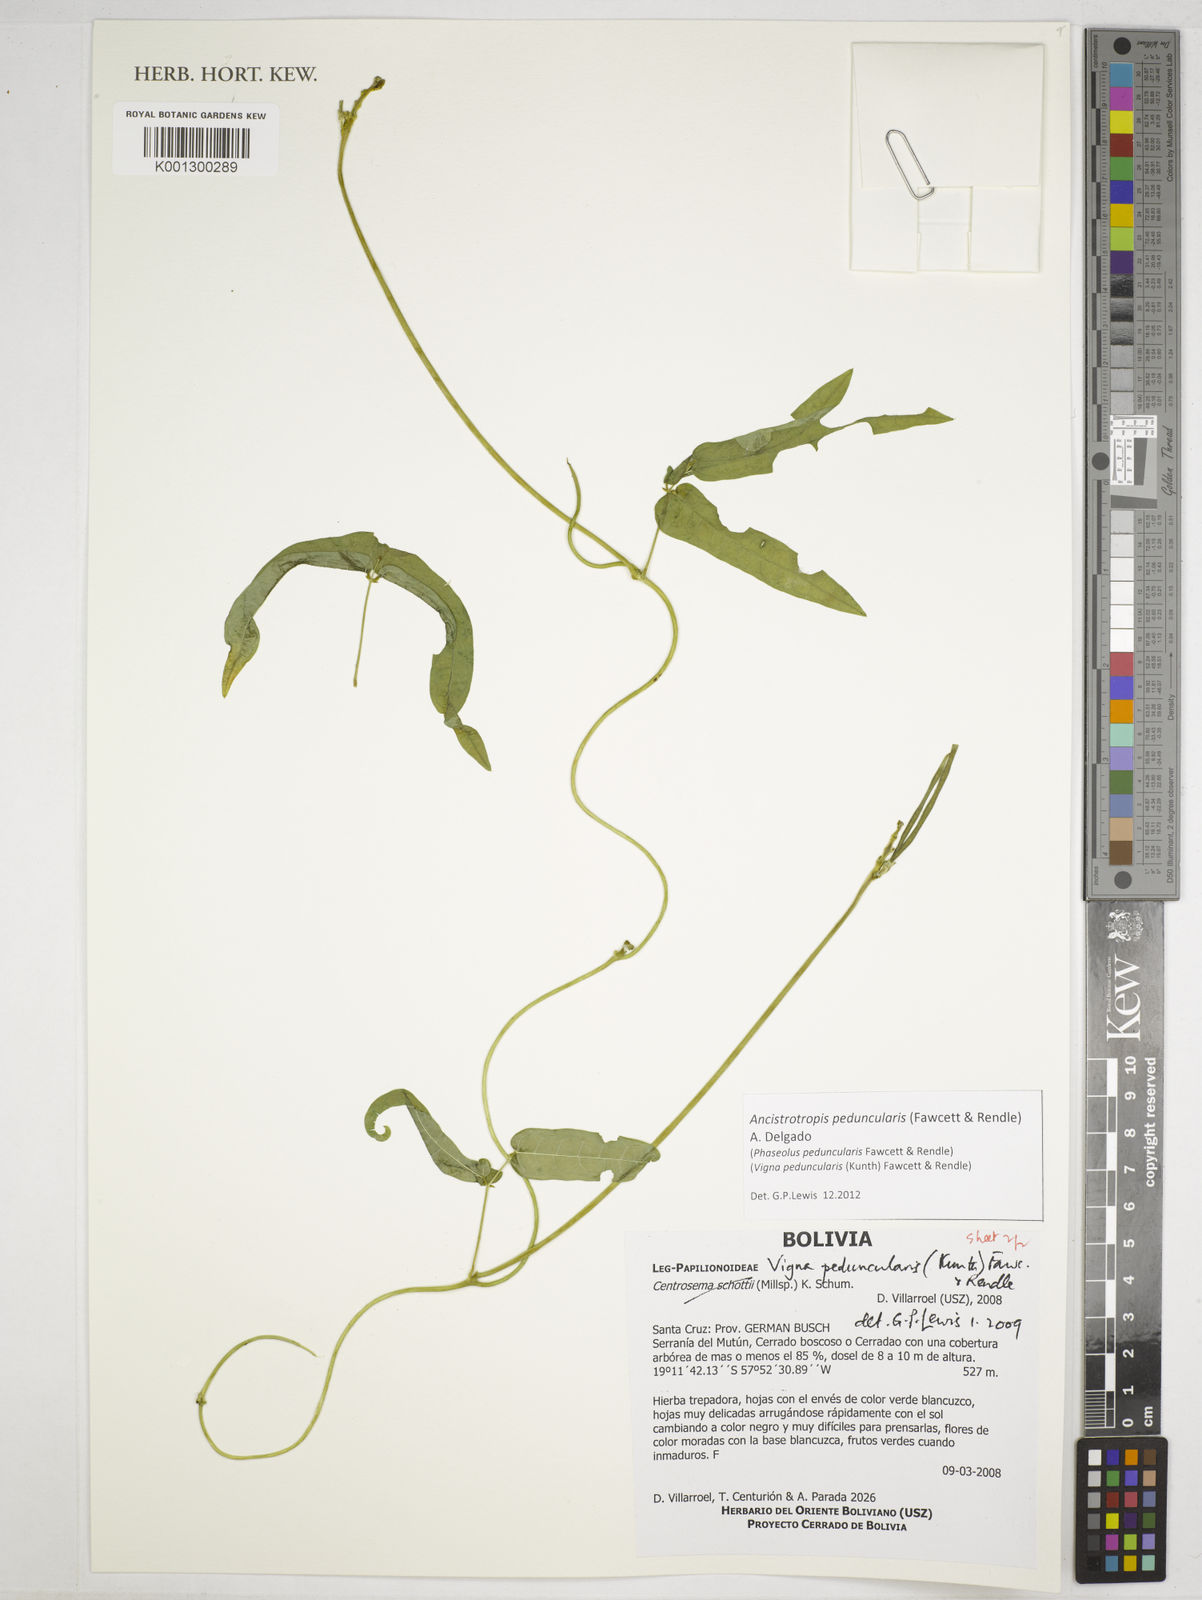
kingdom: Plantae
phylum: Tracheophyta
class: Magnoliopsida
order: Fabales
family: Fabaceae
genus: Ancistrotropis
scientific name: Ancistrotropis peduncularis
